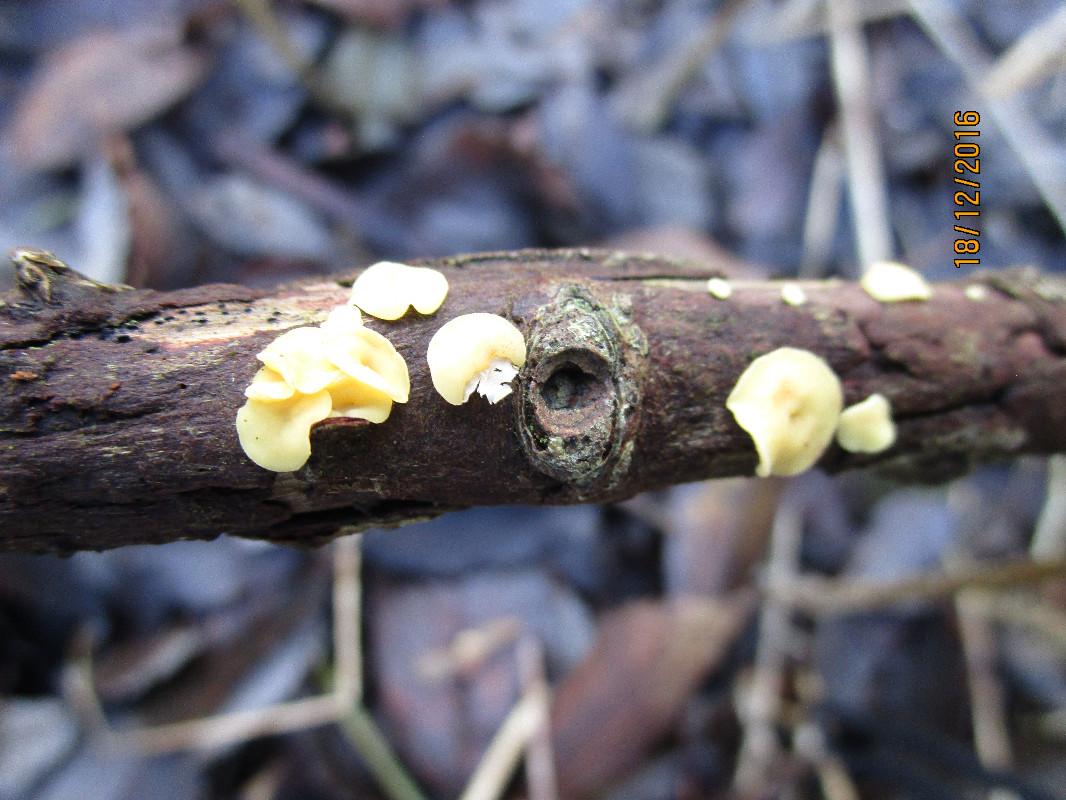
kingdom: Fungi
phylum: Ascomycota
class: Leotiomycetes
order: Helotiales
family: Helotiaceae
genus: Hymenoscyphus
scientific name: Hymenoscyphus
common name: stilkskive
